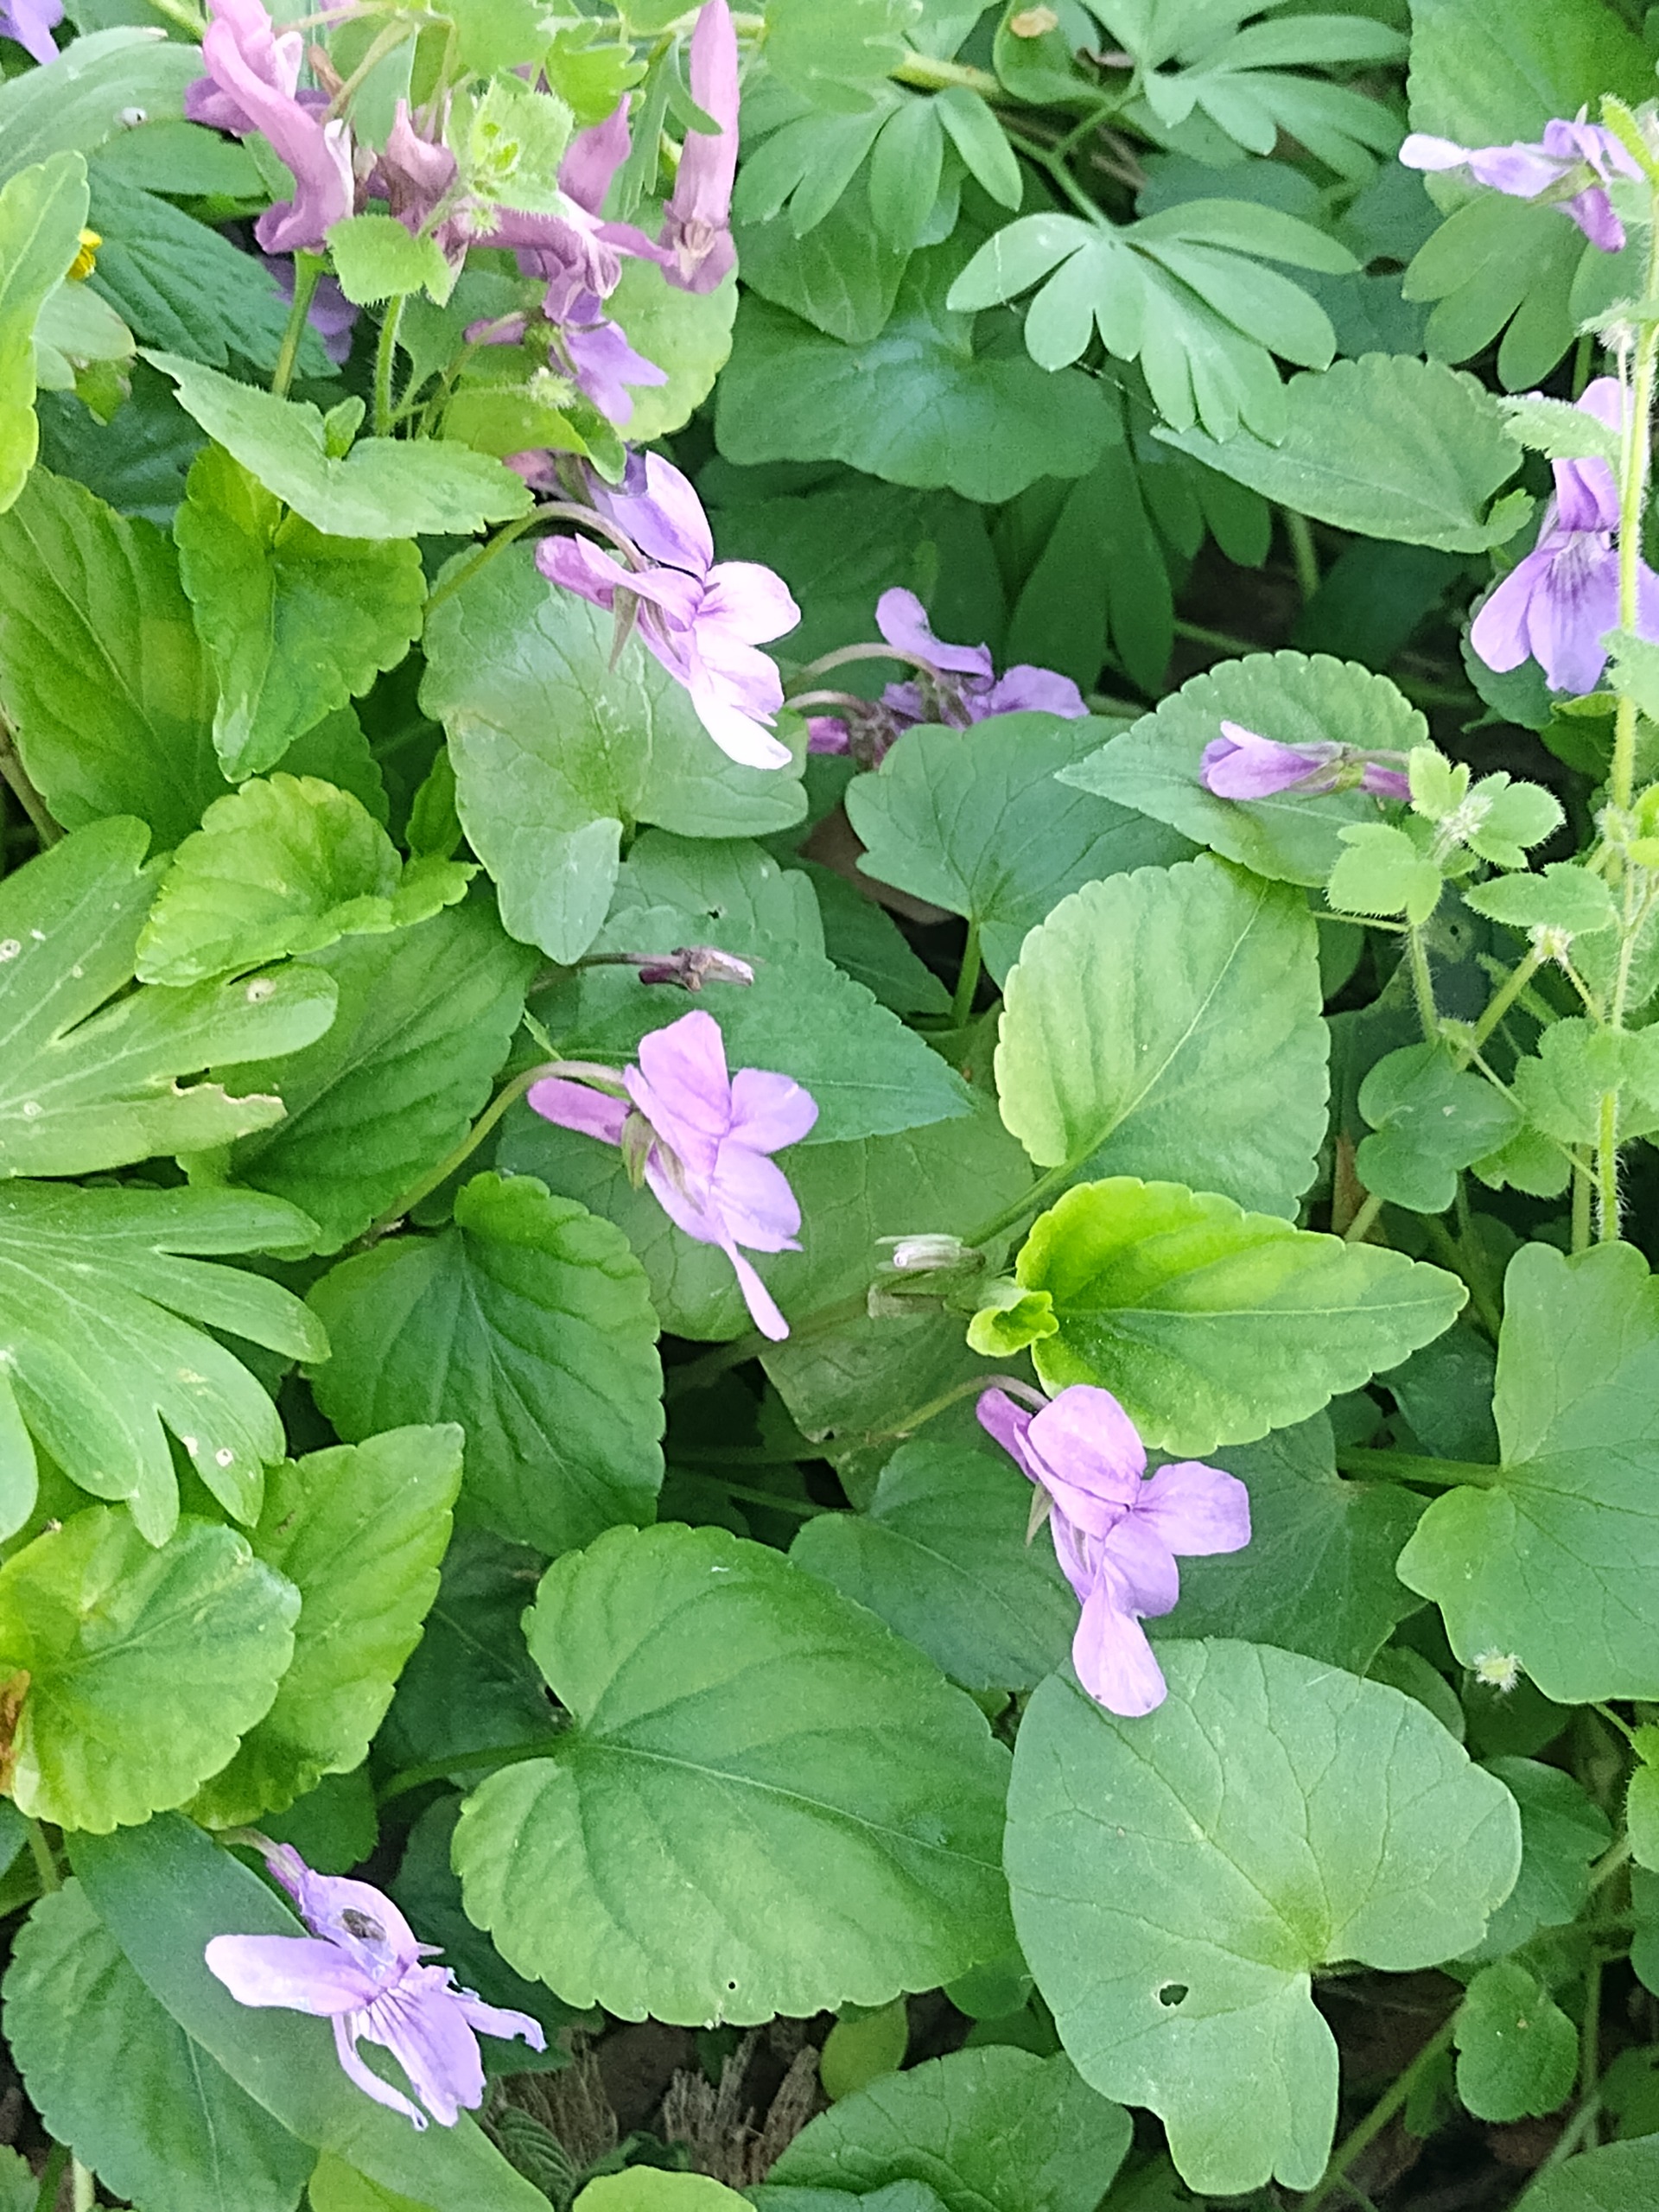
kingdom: Plantae
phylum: Tracheophyta
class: Magnoliopsida
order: Malpighiales
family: Violaceae
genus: Viola
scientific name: Viola reichenbachiana
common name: Skov-viol
